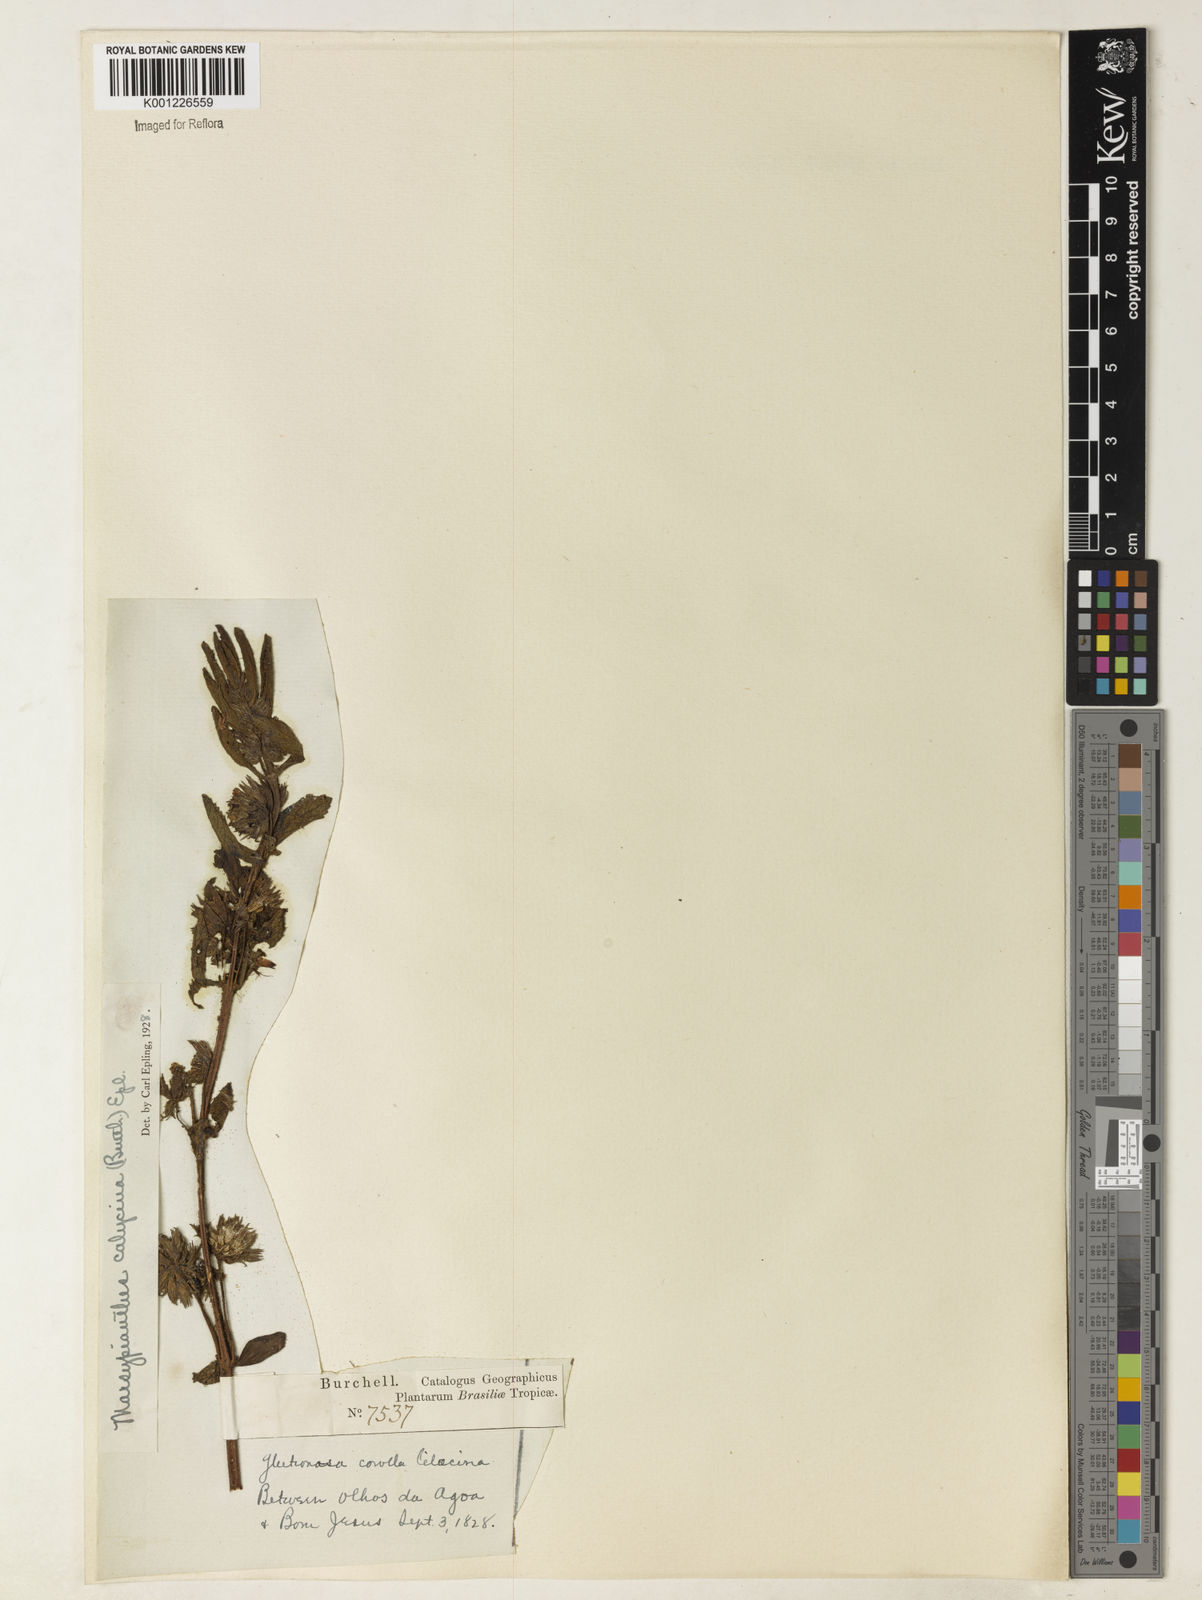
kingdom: Plantae
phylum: Tracheophyta
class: Magnoliopsida
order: Lamiales
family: Lamiaceae
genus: Marsypianthes
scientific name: Marsypianthes burchellii
